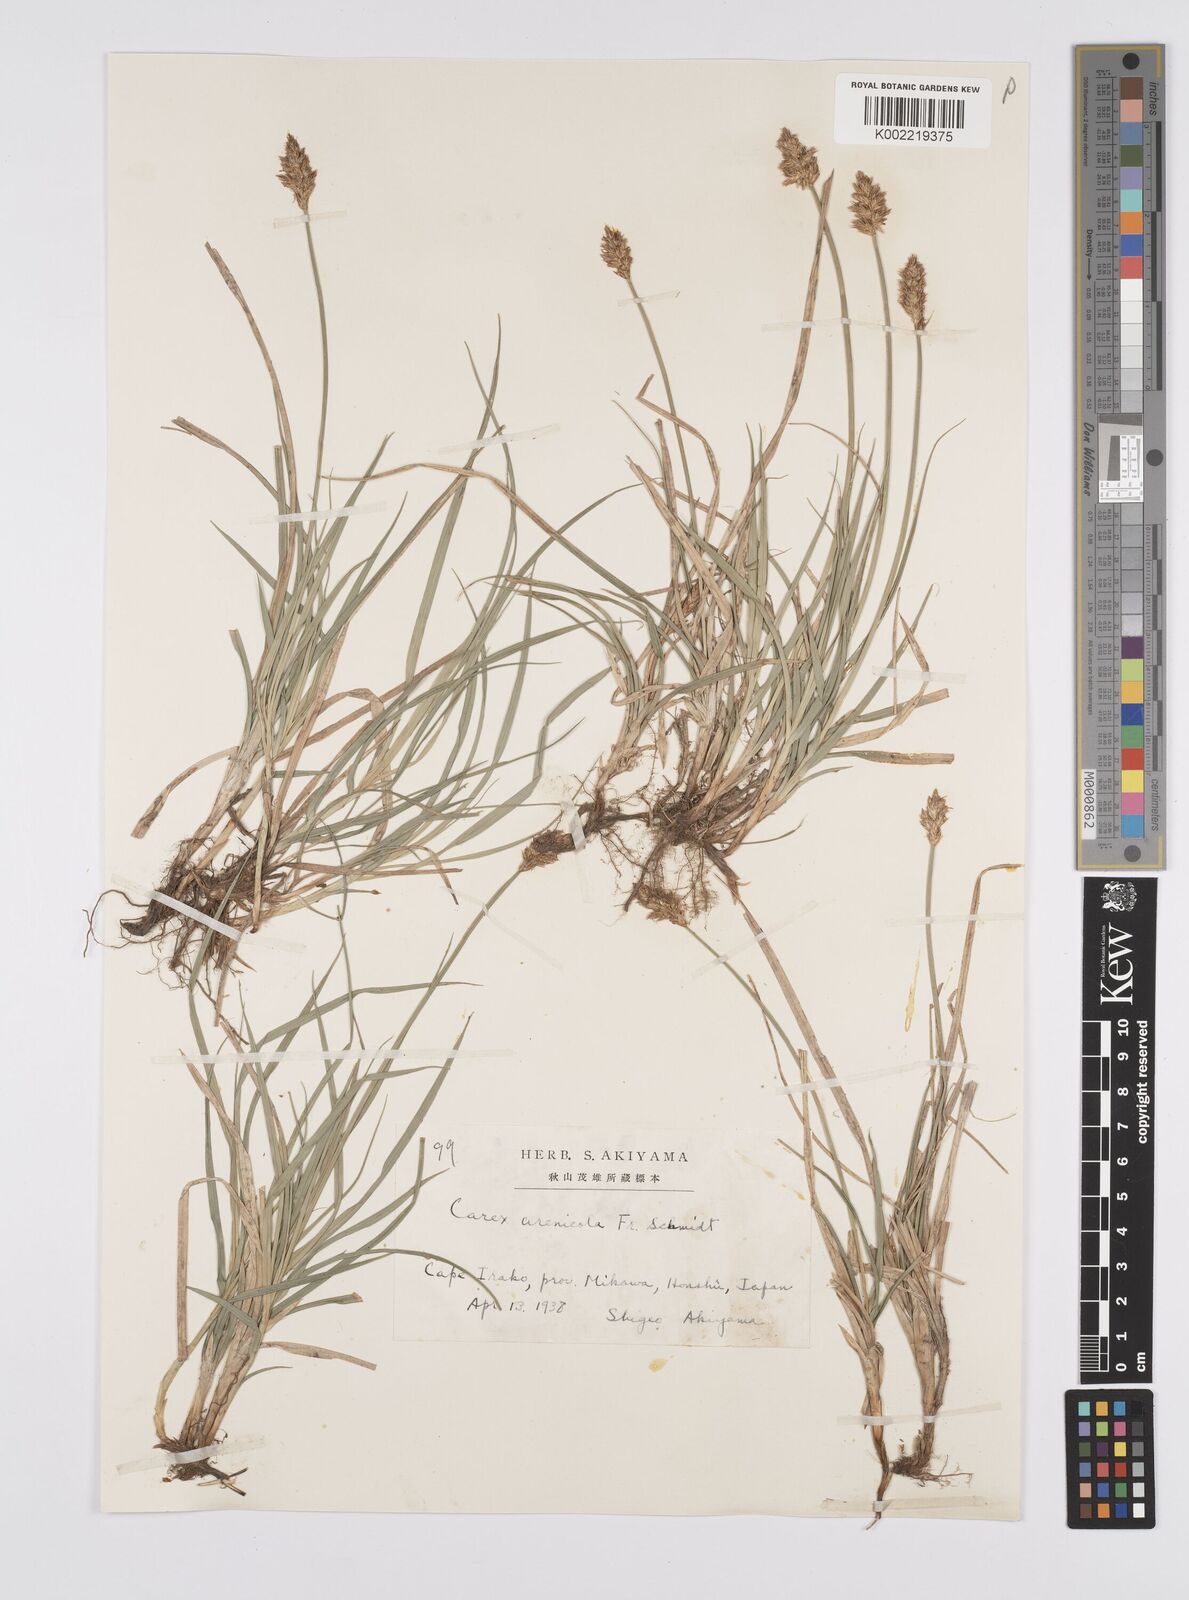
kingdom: Plantae
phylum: Tracheophyta
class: Liliopsida
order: Poales
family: Cyperaceae
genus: Carex
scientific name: Carex arenicola
